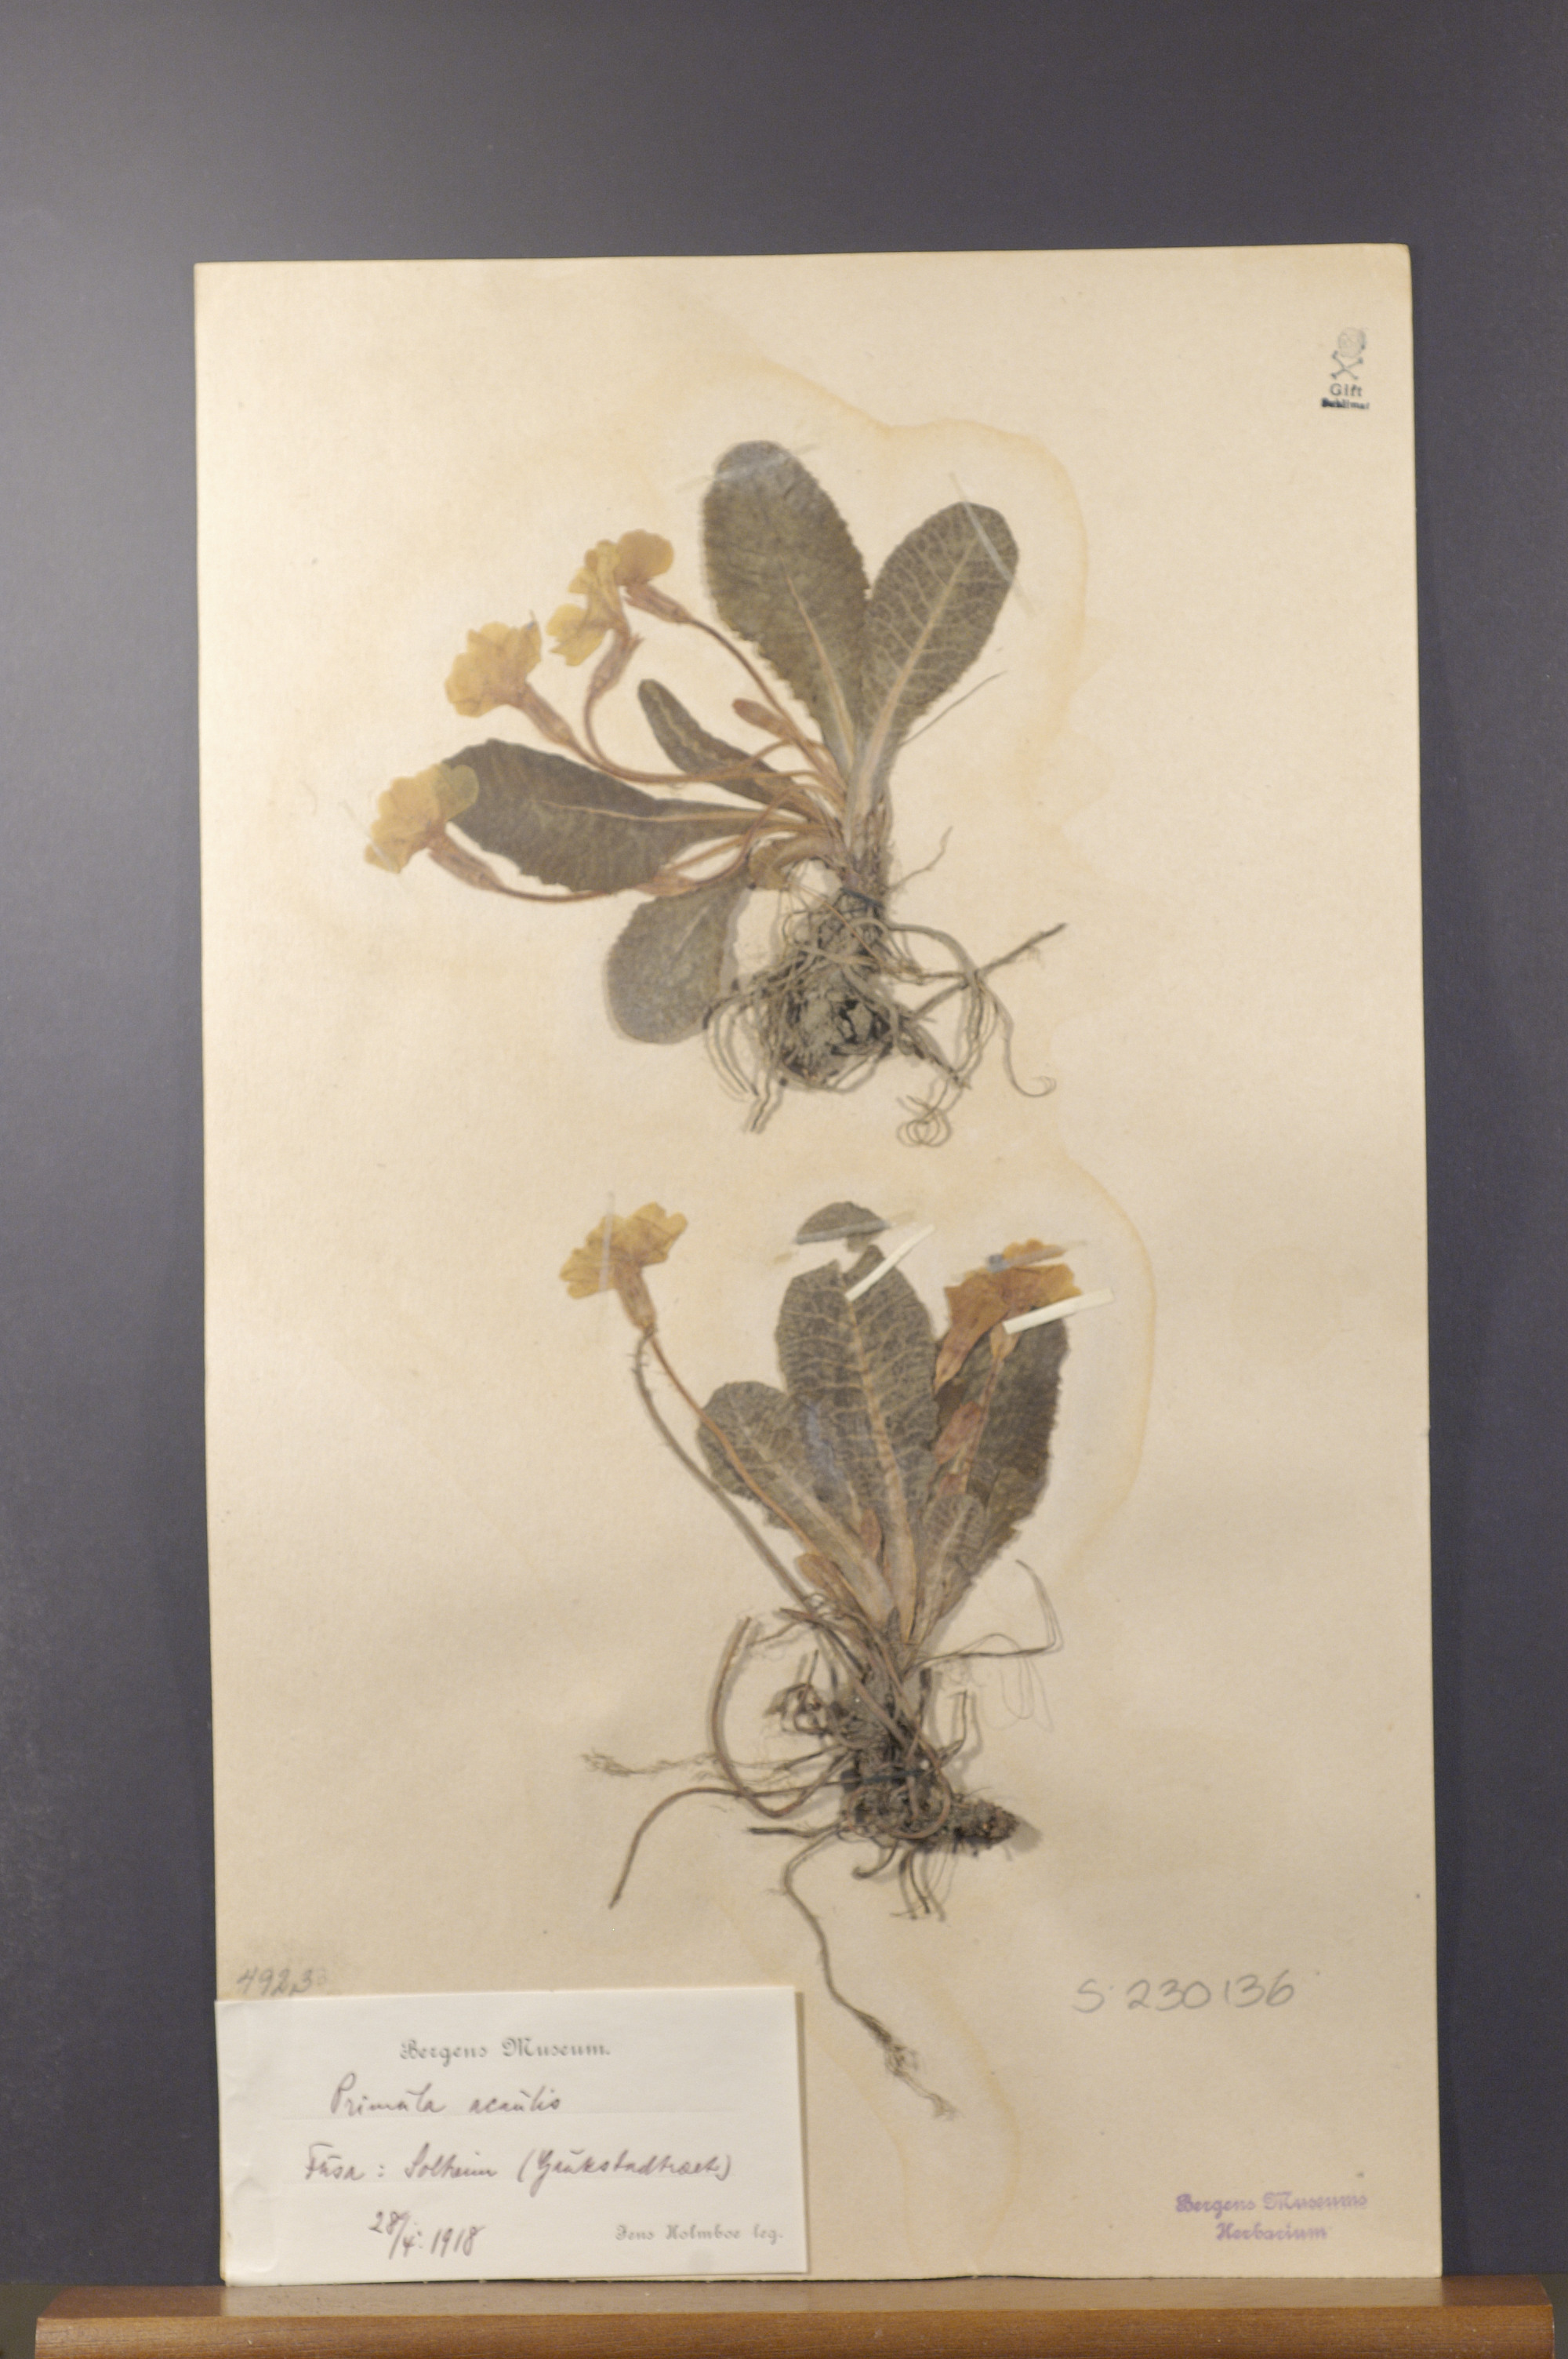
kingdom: Plantae
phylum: Tracheophyta
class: Magnoliopsida
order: Ericales
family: Primulaceae
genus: Primula
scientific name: Primula vulgaris
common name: Primrose
